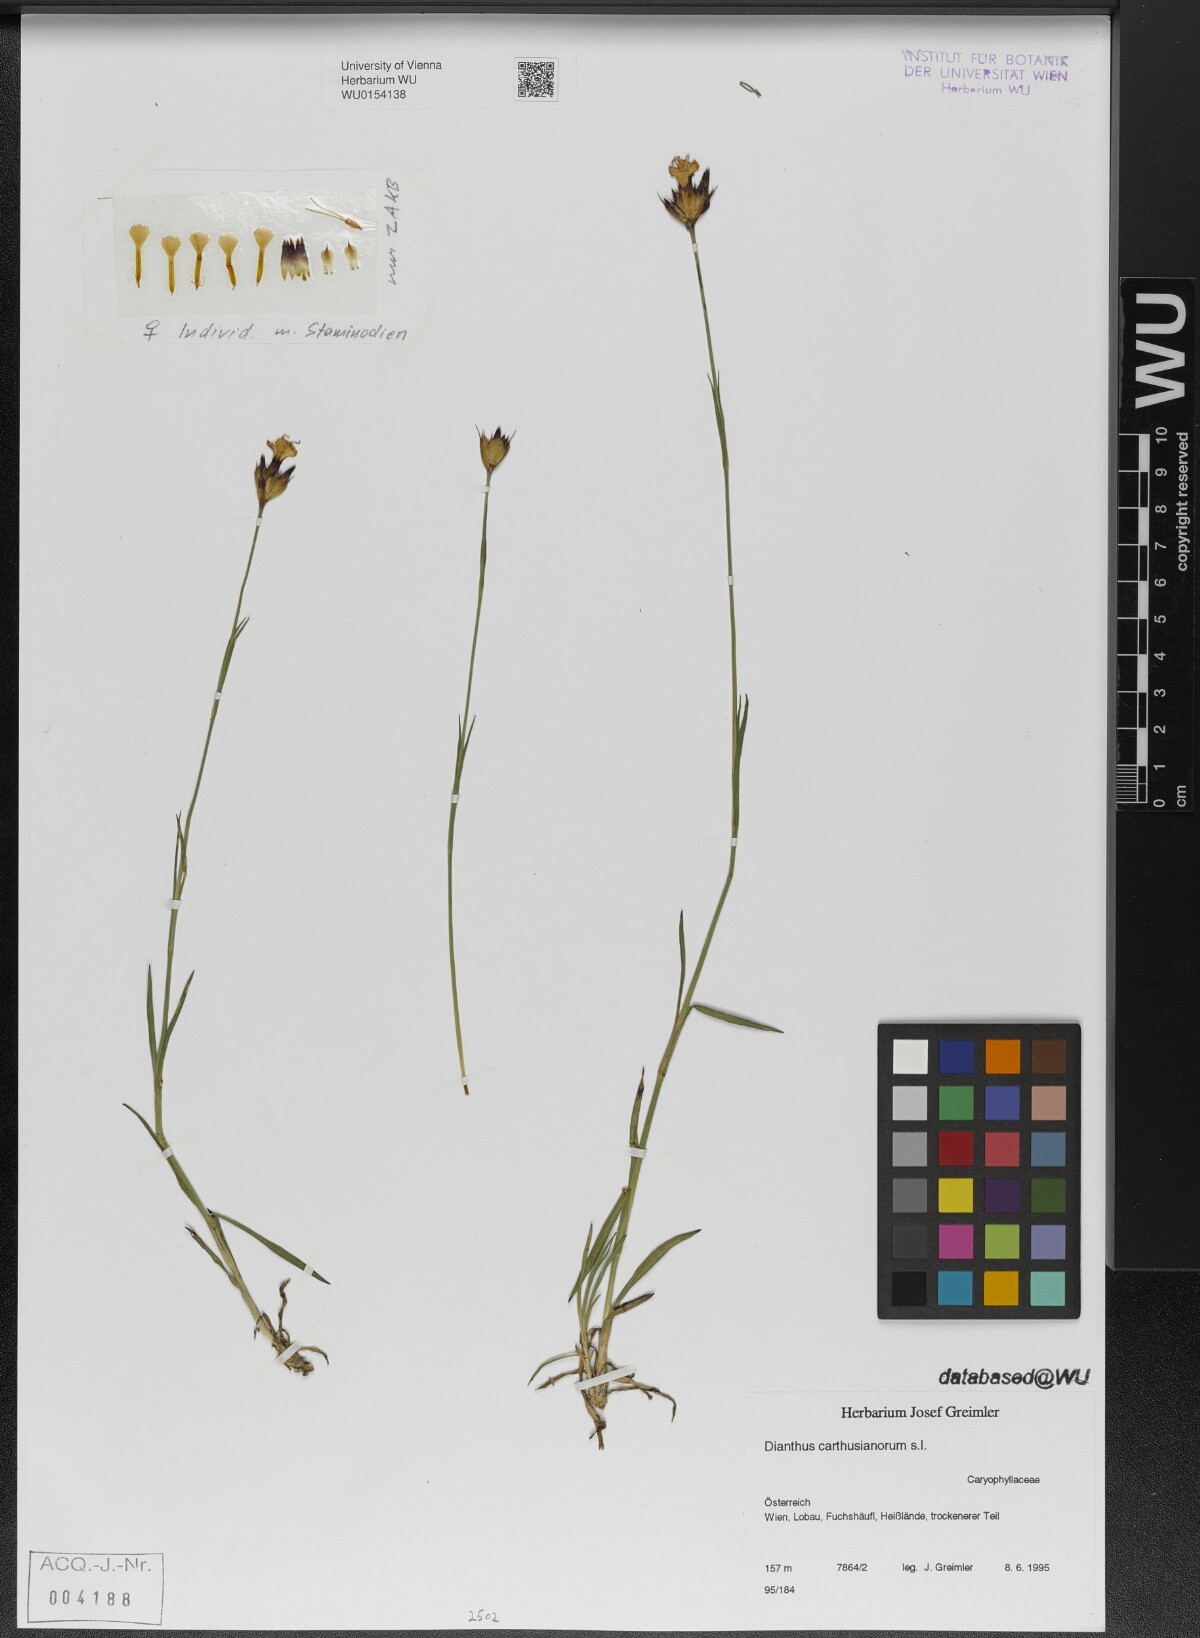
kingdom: Plantae
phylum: Tracheophyta
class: Magnoliopsida
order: Caryophyllales
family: Caryophyllaceae
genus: Dianthus
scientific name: Dianthus carthusianorum
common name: Carthusian pink
